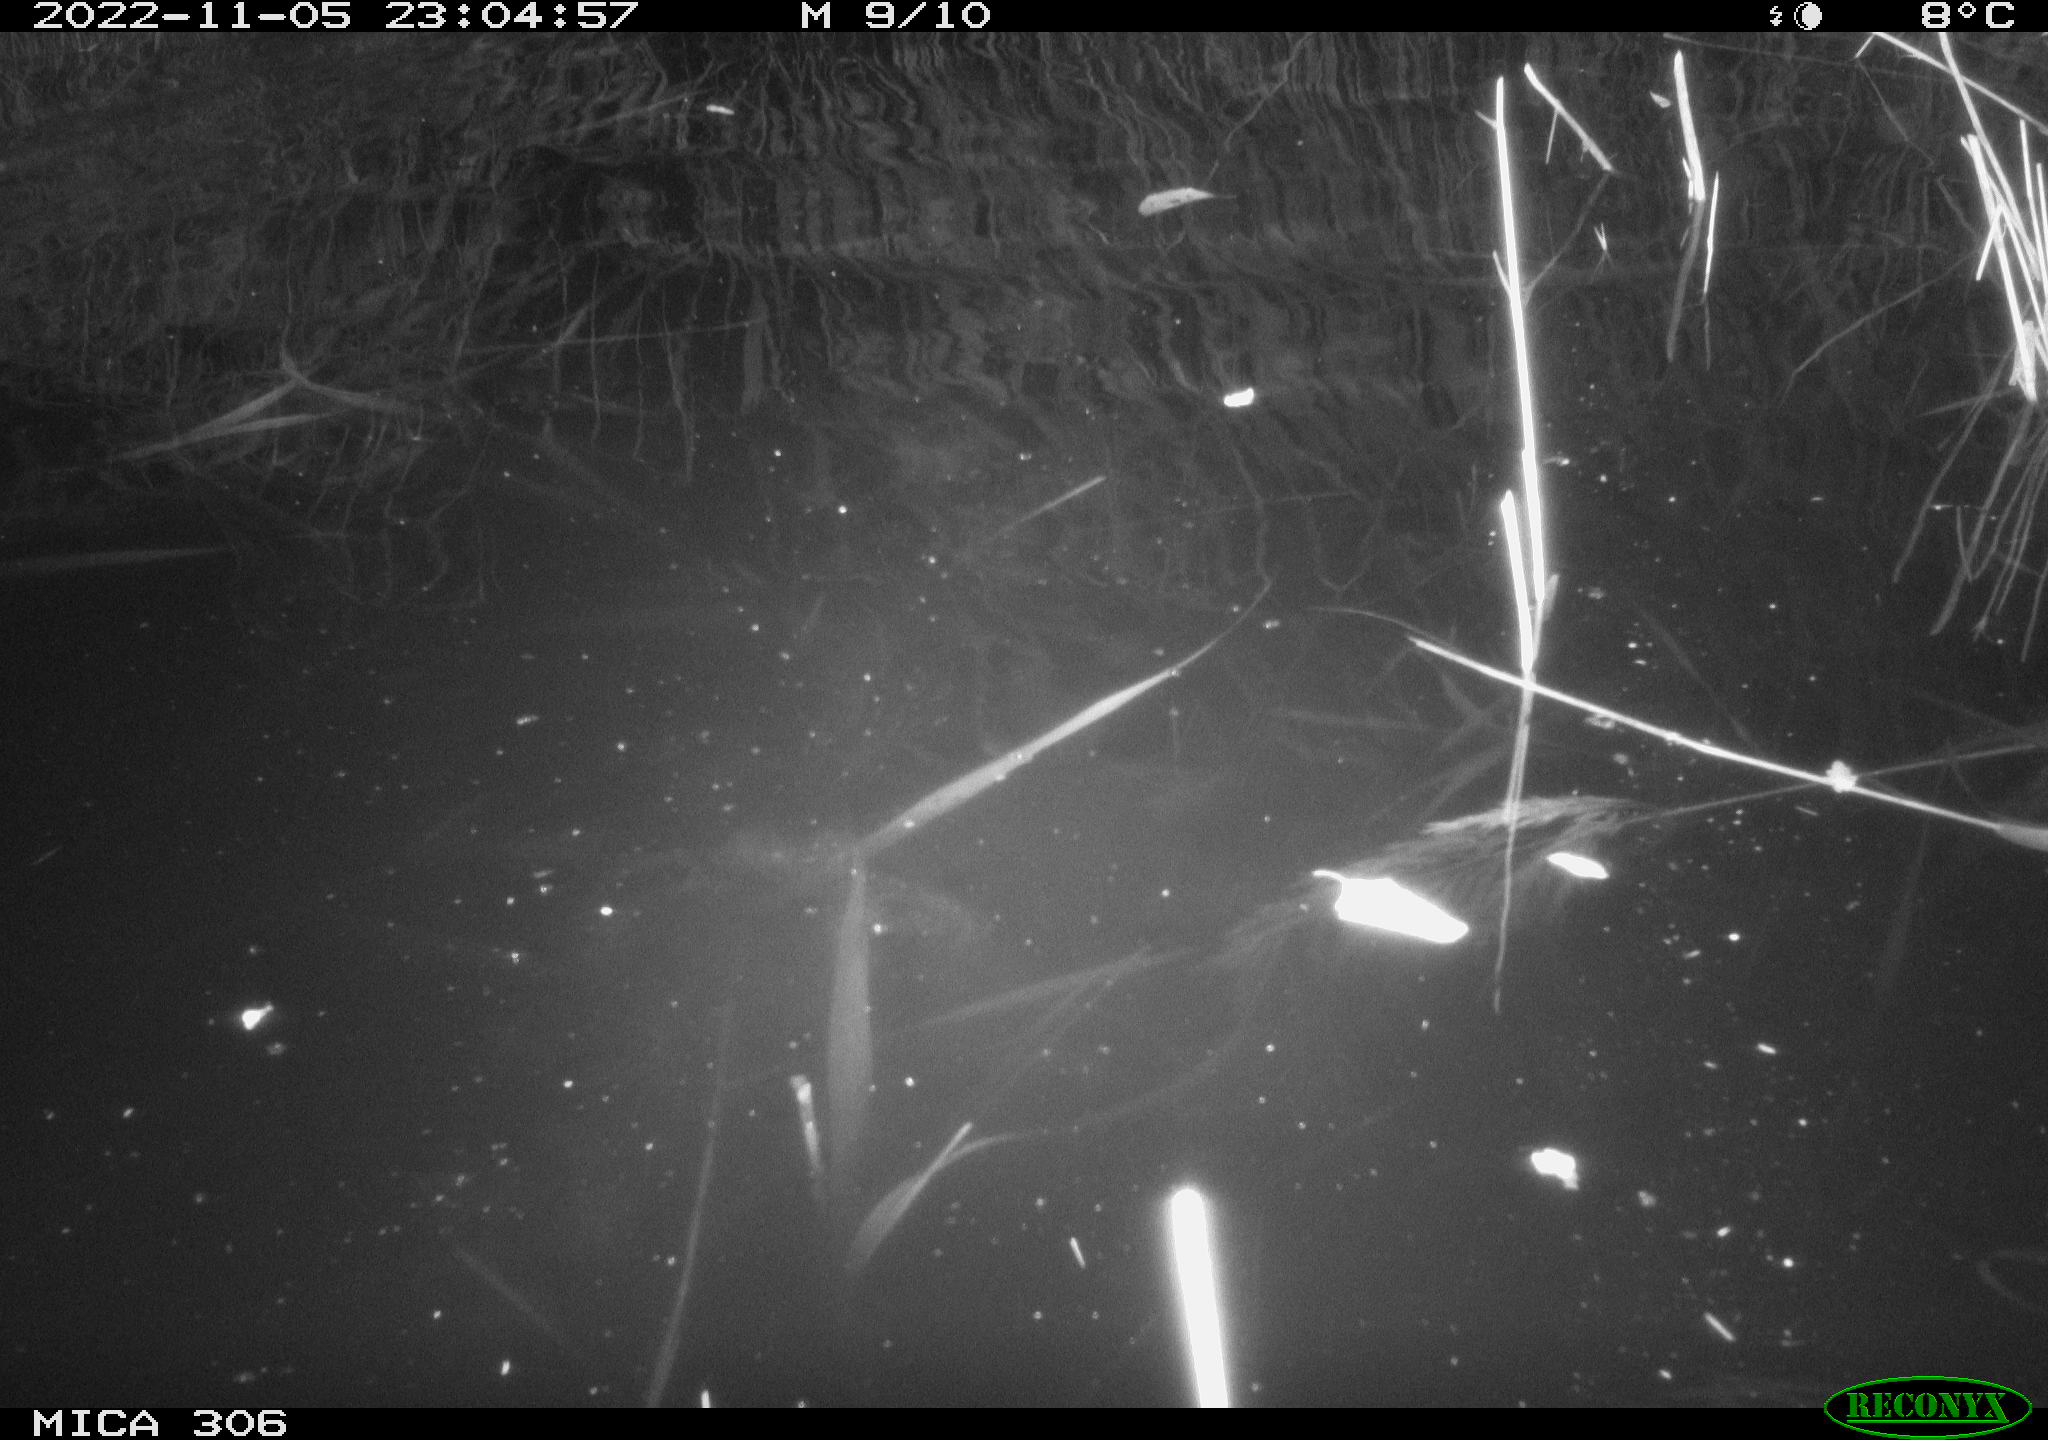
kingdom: Animalia
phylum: Chordata
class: Mammalia
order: Rodentia
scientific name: Rodentia
